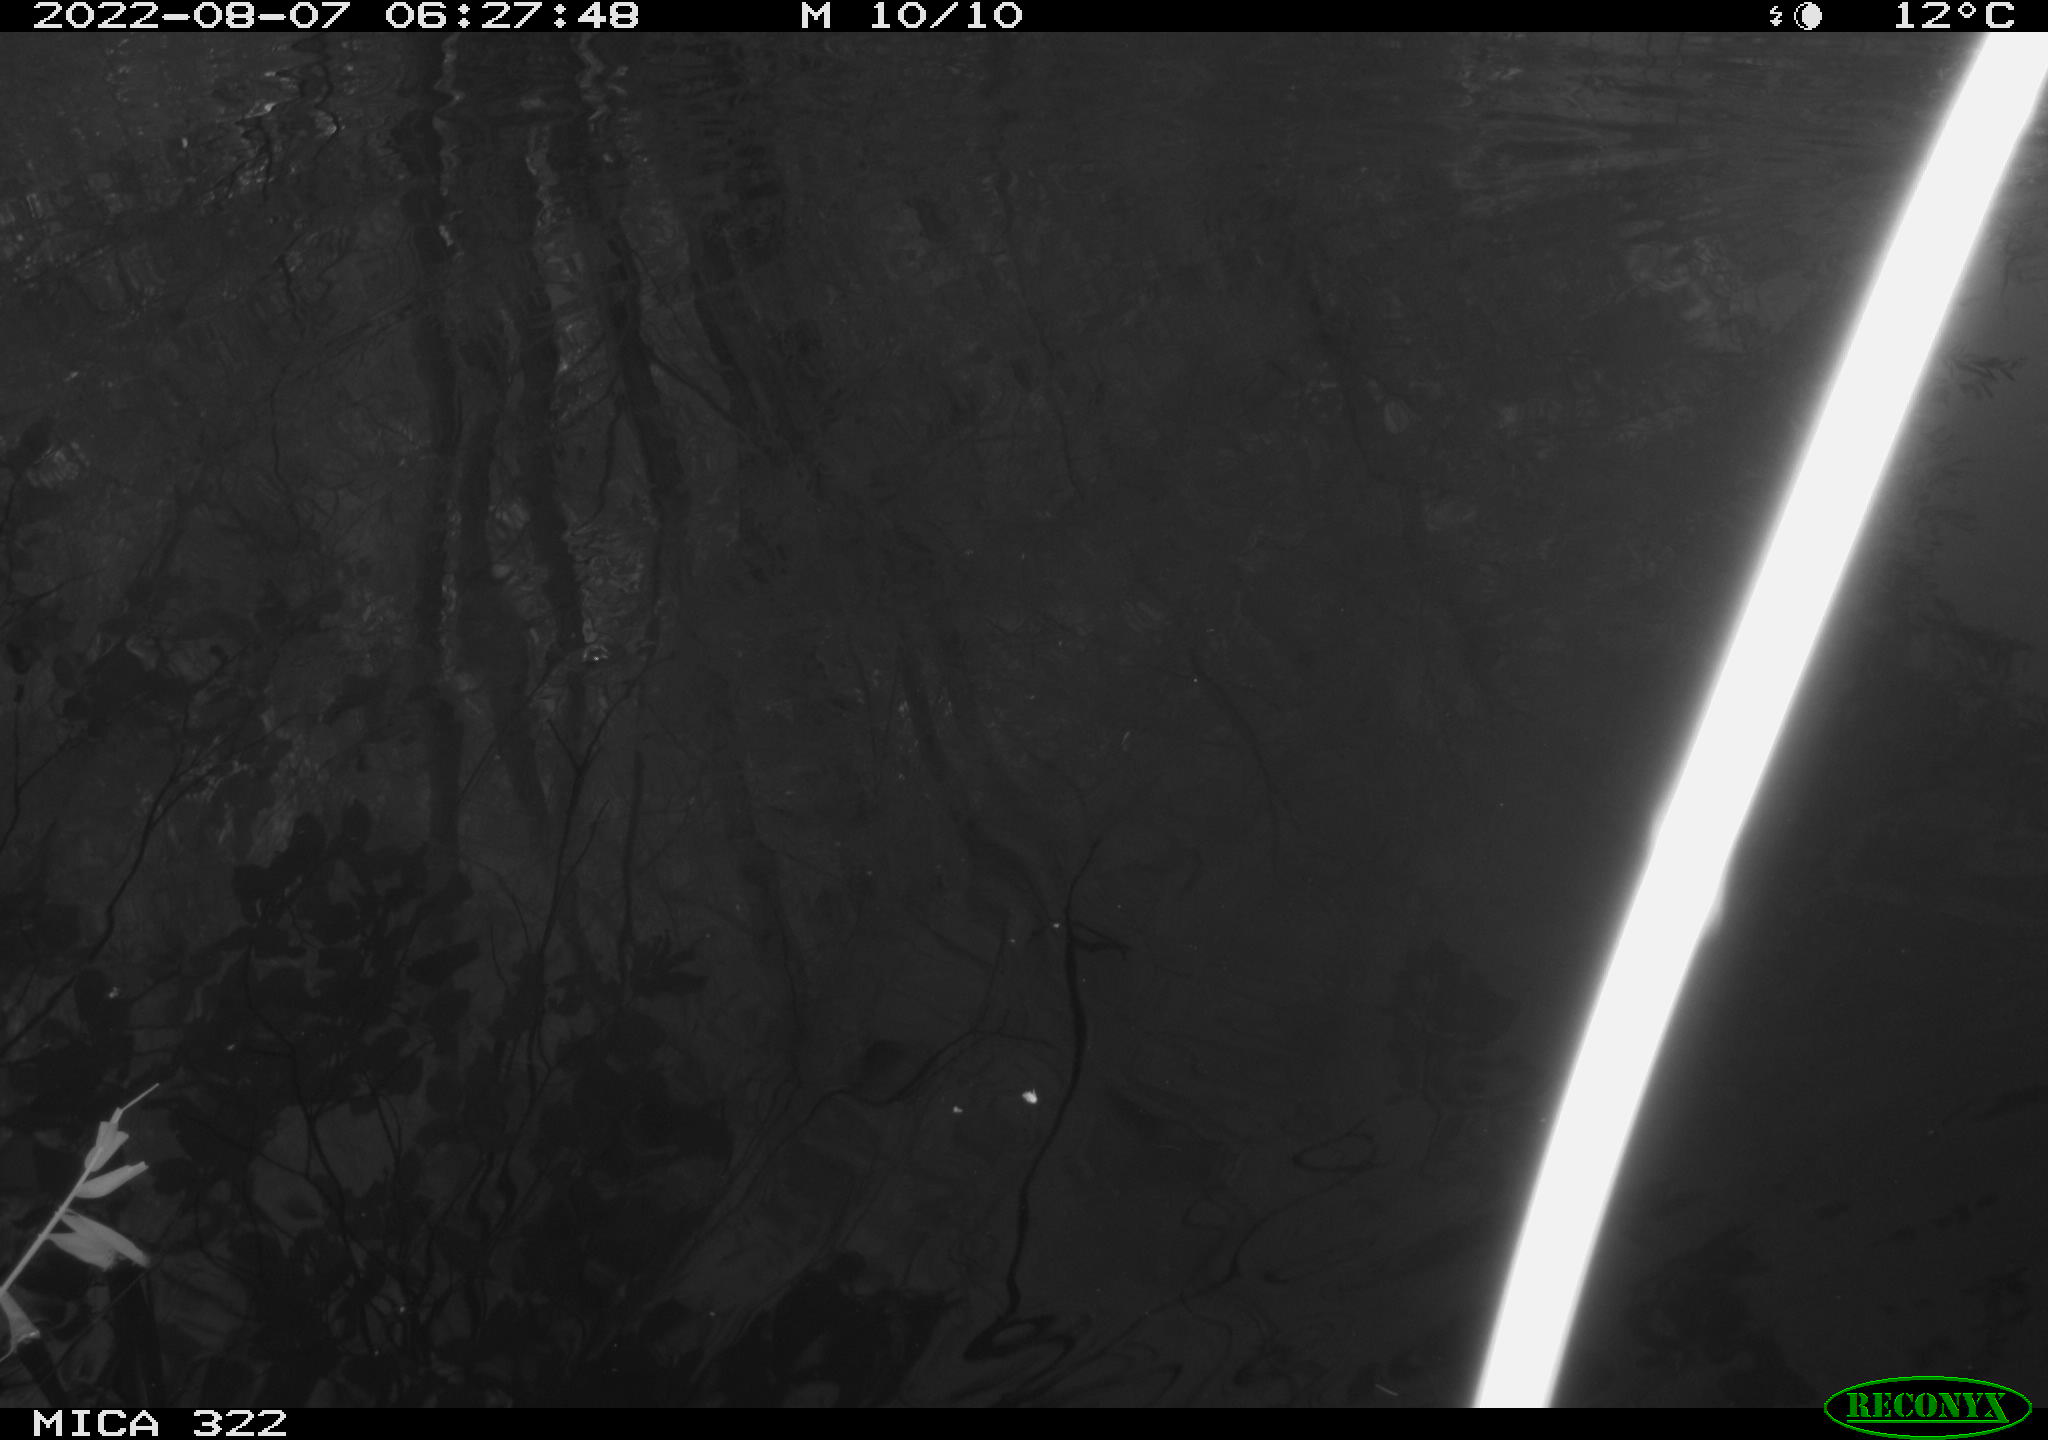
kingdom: Animalia
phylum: Chordata
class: Aves
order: Anseriformes
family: Anatidae
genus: Mareca
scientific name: Mareca strepera
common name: Gadwall
